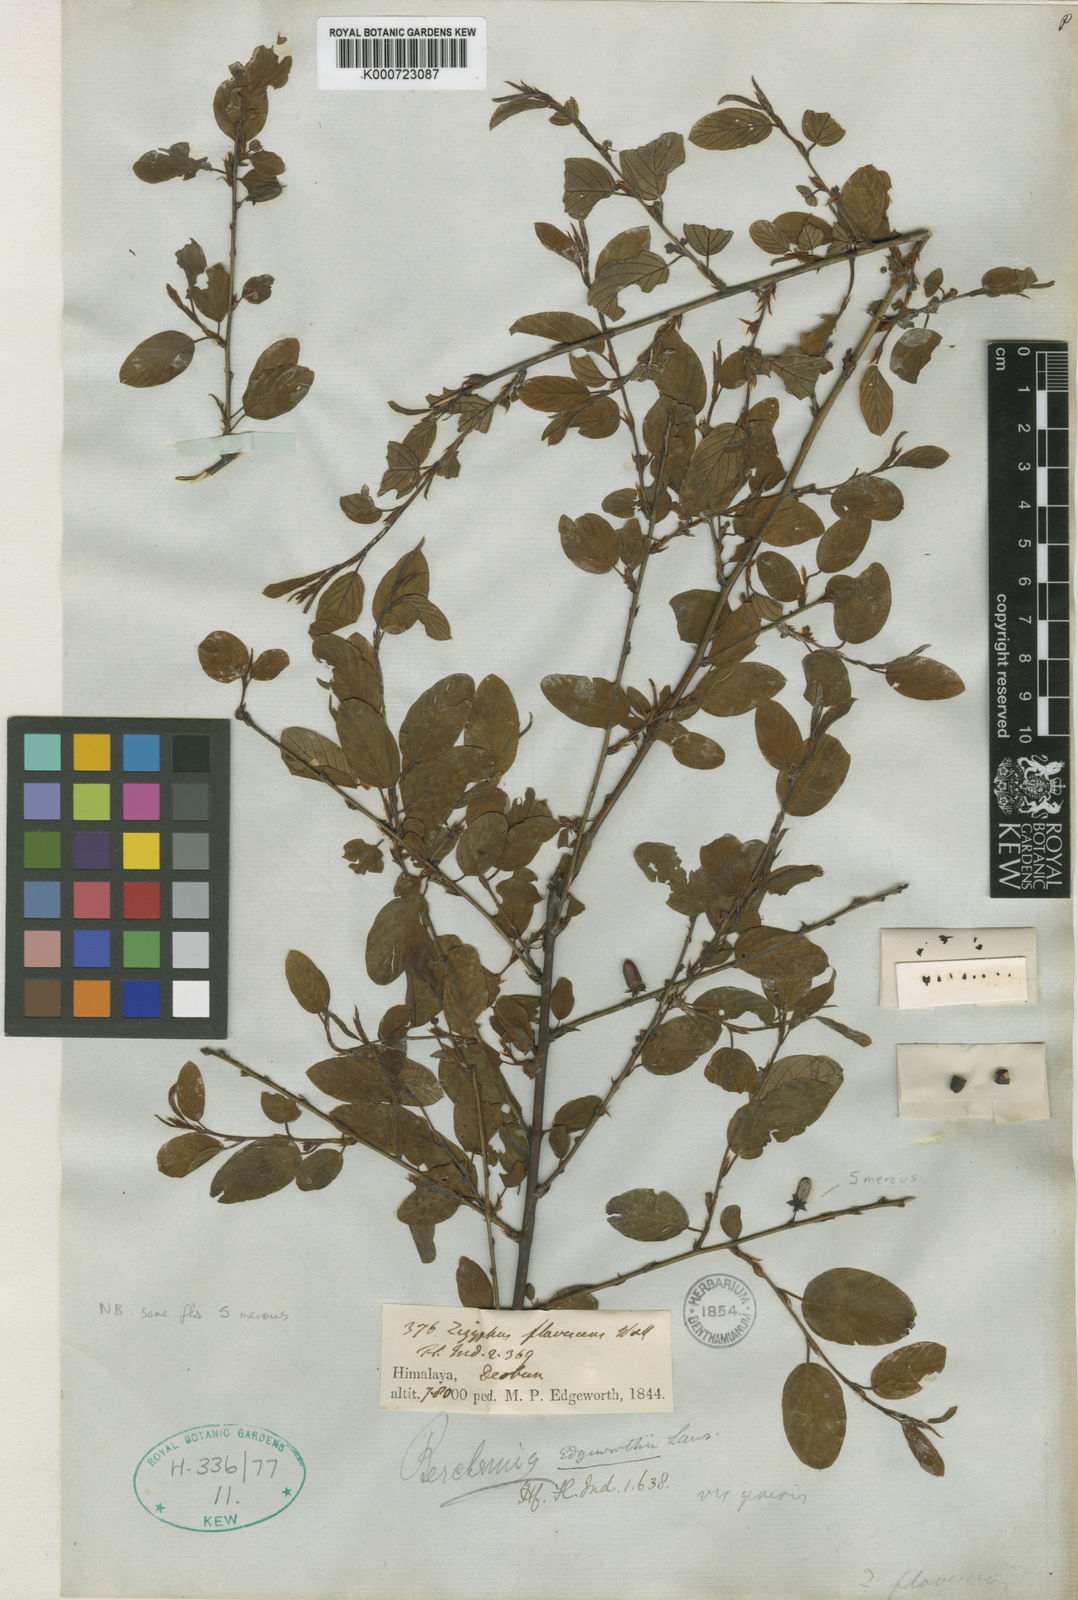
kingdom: Plantae
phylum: Tracheophyta
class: Magnoliopsida
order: Rosales
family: Rhamnaceae
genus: Berchemia
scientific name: Berchemia edgeworthii
